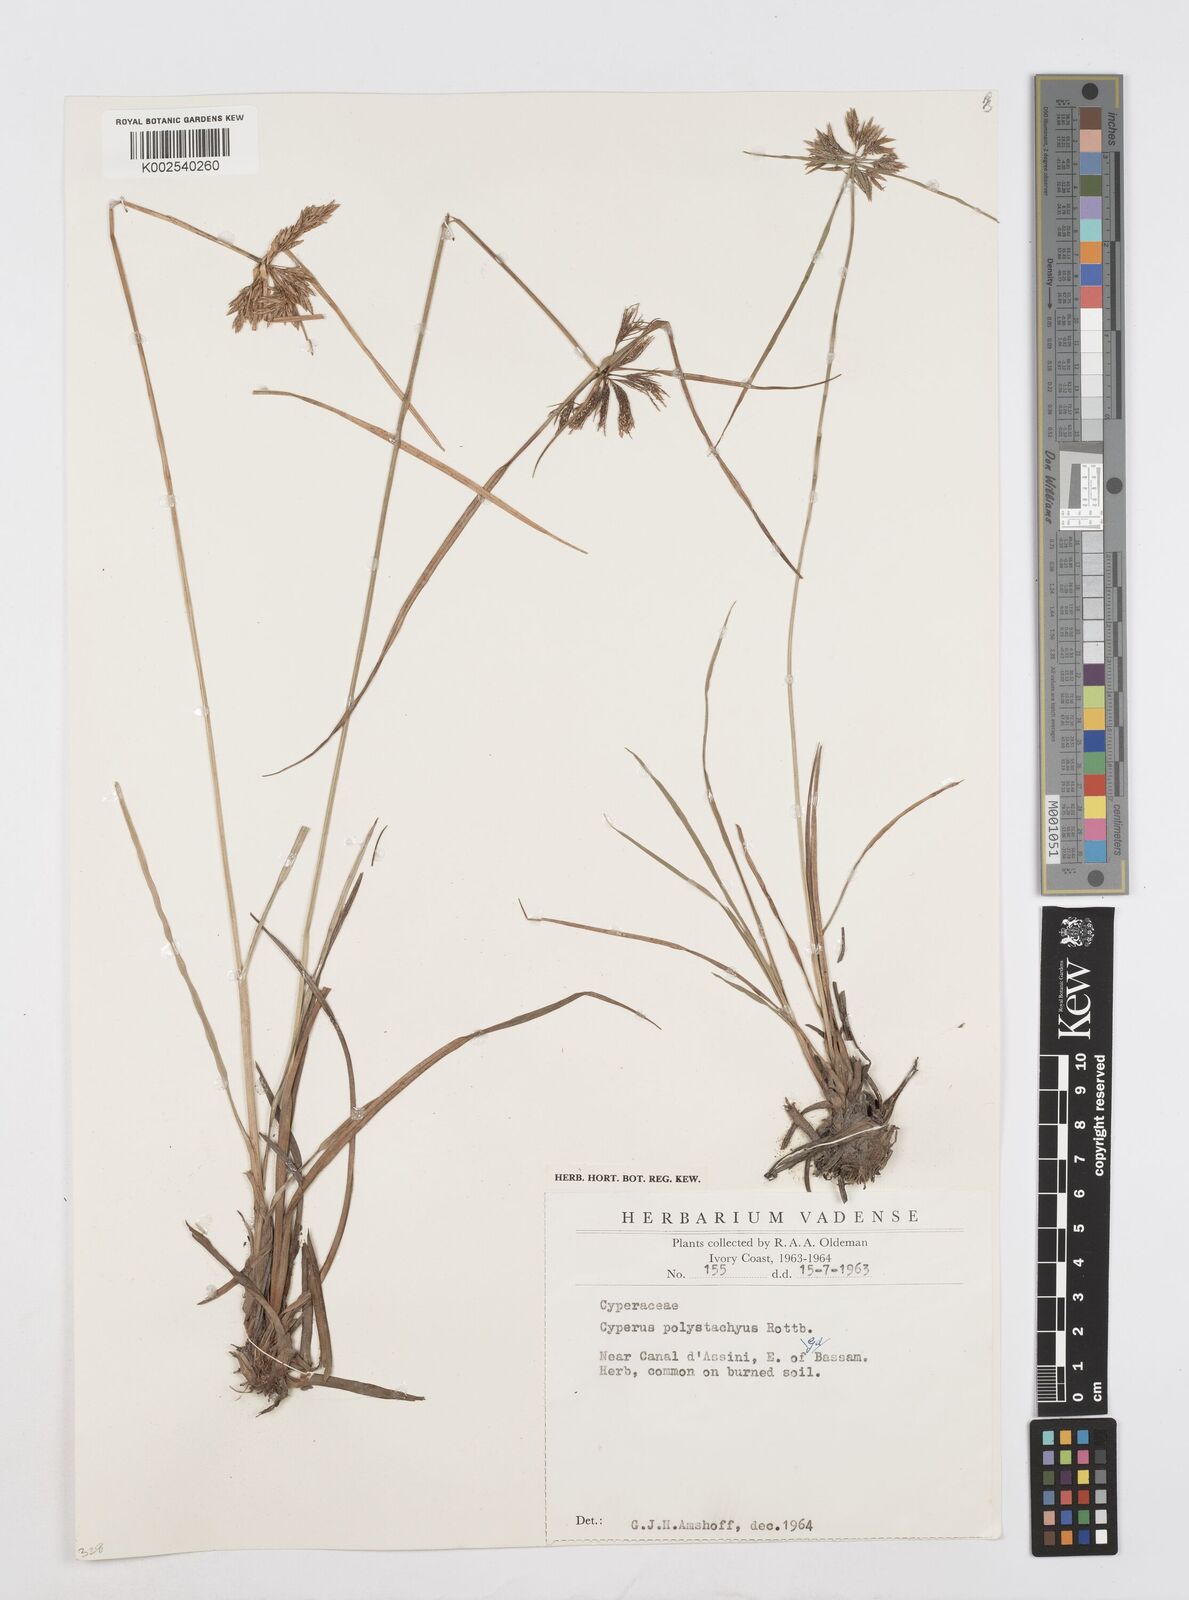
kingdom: Plantae
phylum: Tracheophyta
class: Liliopsida
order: Poales
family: Cyperaceae
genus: Cyperus
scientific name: Cyperus polystachyos
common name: Bunchy flat sedge
